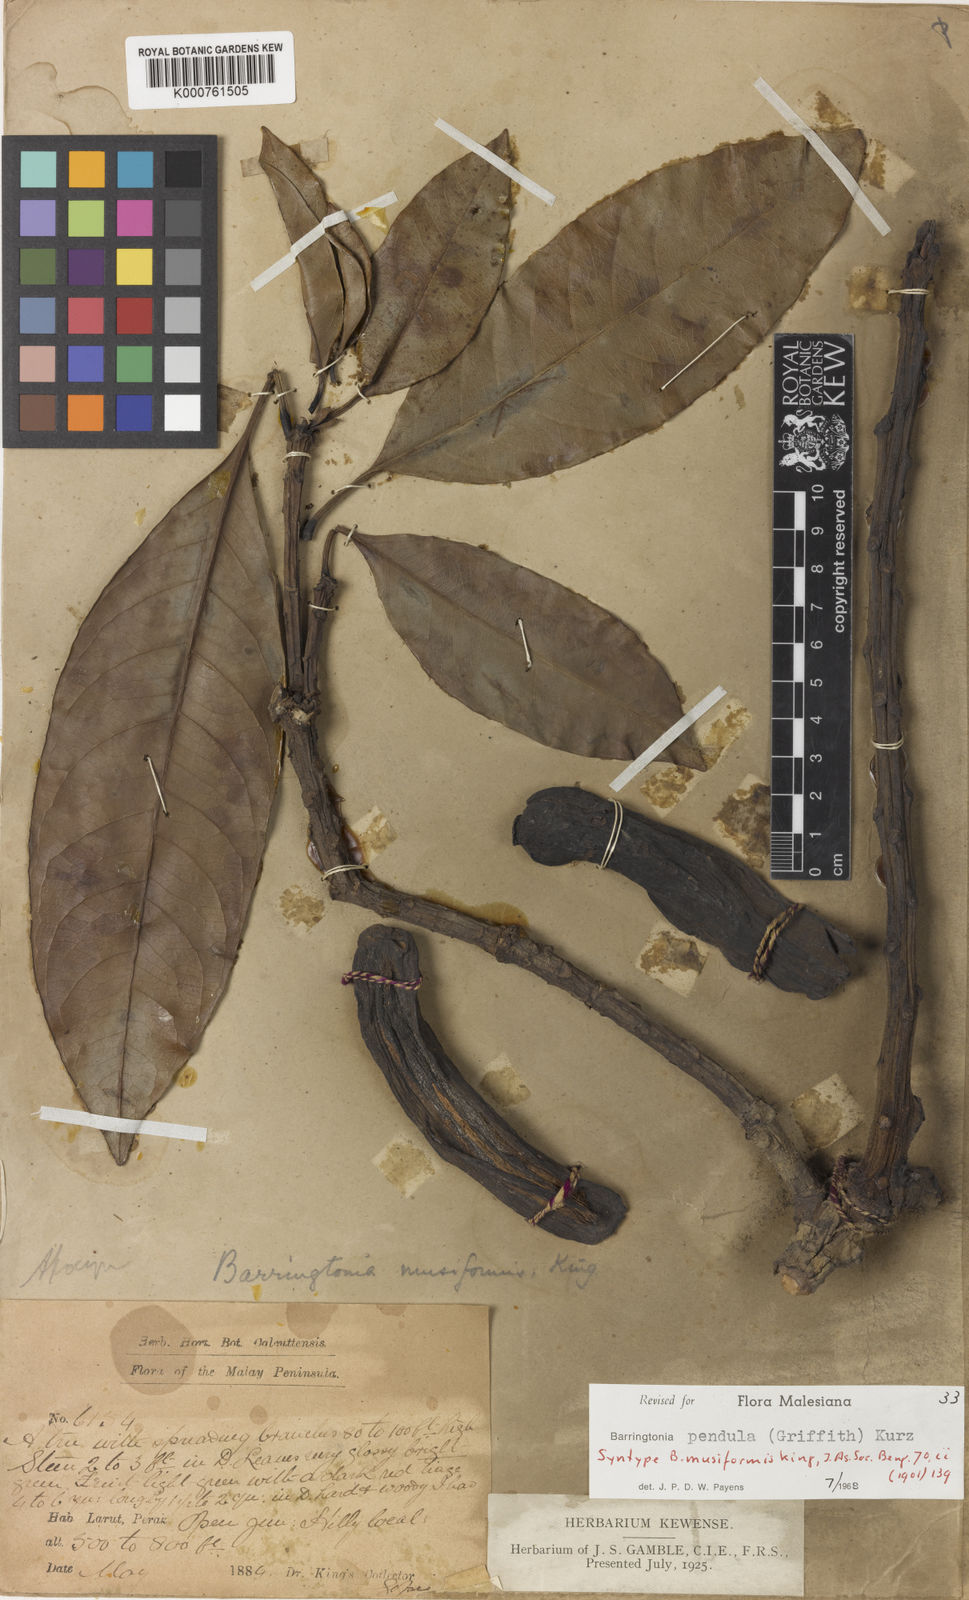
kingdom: Plantae
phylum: Tracheophyta
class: Magnoliopsida
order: Ericales
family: Lecythidaceae
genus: Barringtonia
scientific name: Barringtonia pendula
